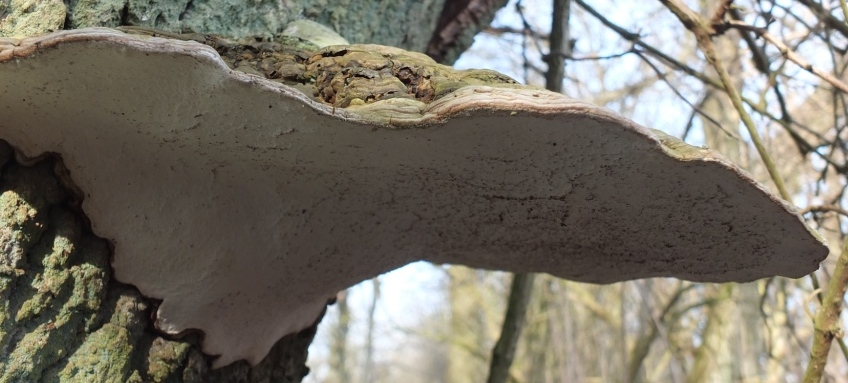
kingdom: Fungi
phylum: Basidiomycota
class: Agaricomycetes
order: Polyporales
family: Polyporaceae
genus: Ganoderma
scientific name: Ganoderma applanatum
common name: flad lakporesvamp
